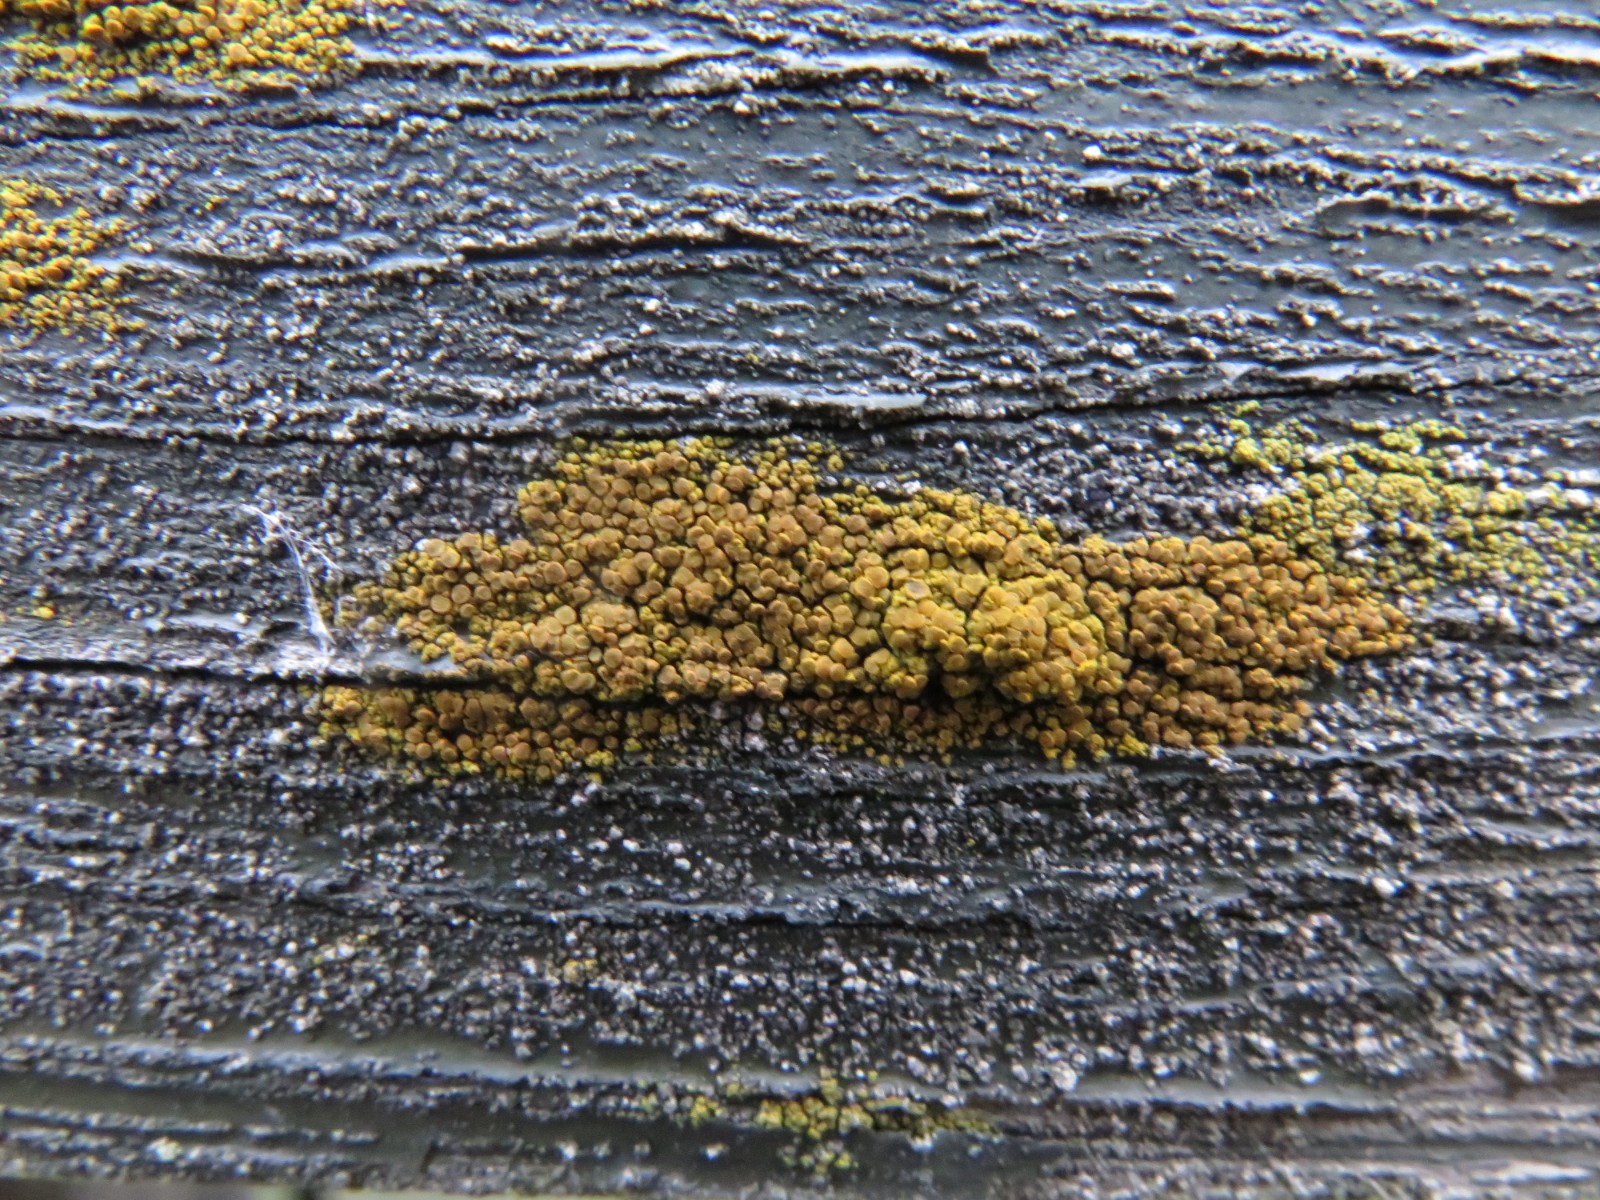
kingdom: Fungi
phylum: Ascomycota
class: Candelariomycetes
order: Candelariales
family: Candelariaceae
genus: Candelariella
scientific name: Candelariella vitellina
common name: almindelig æggeblommelav
